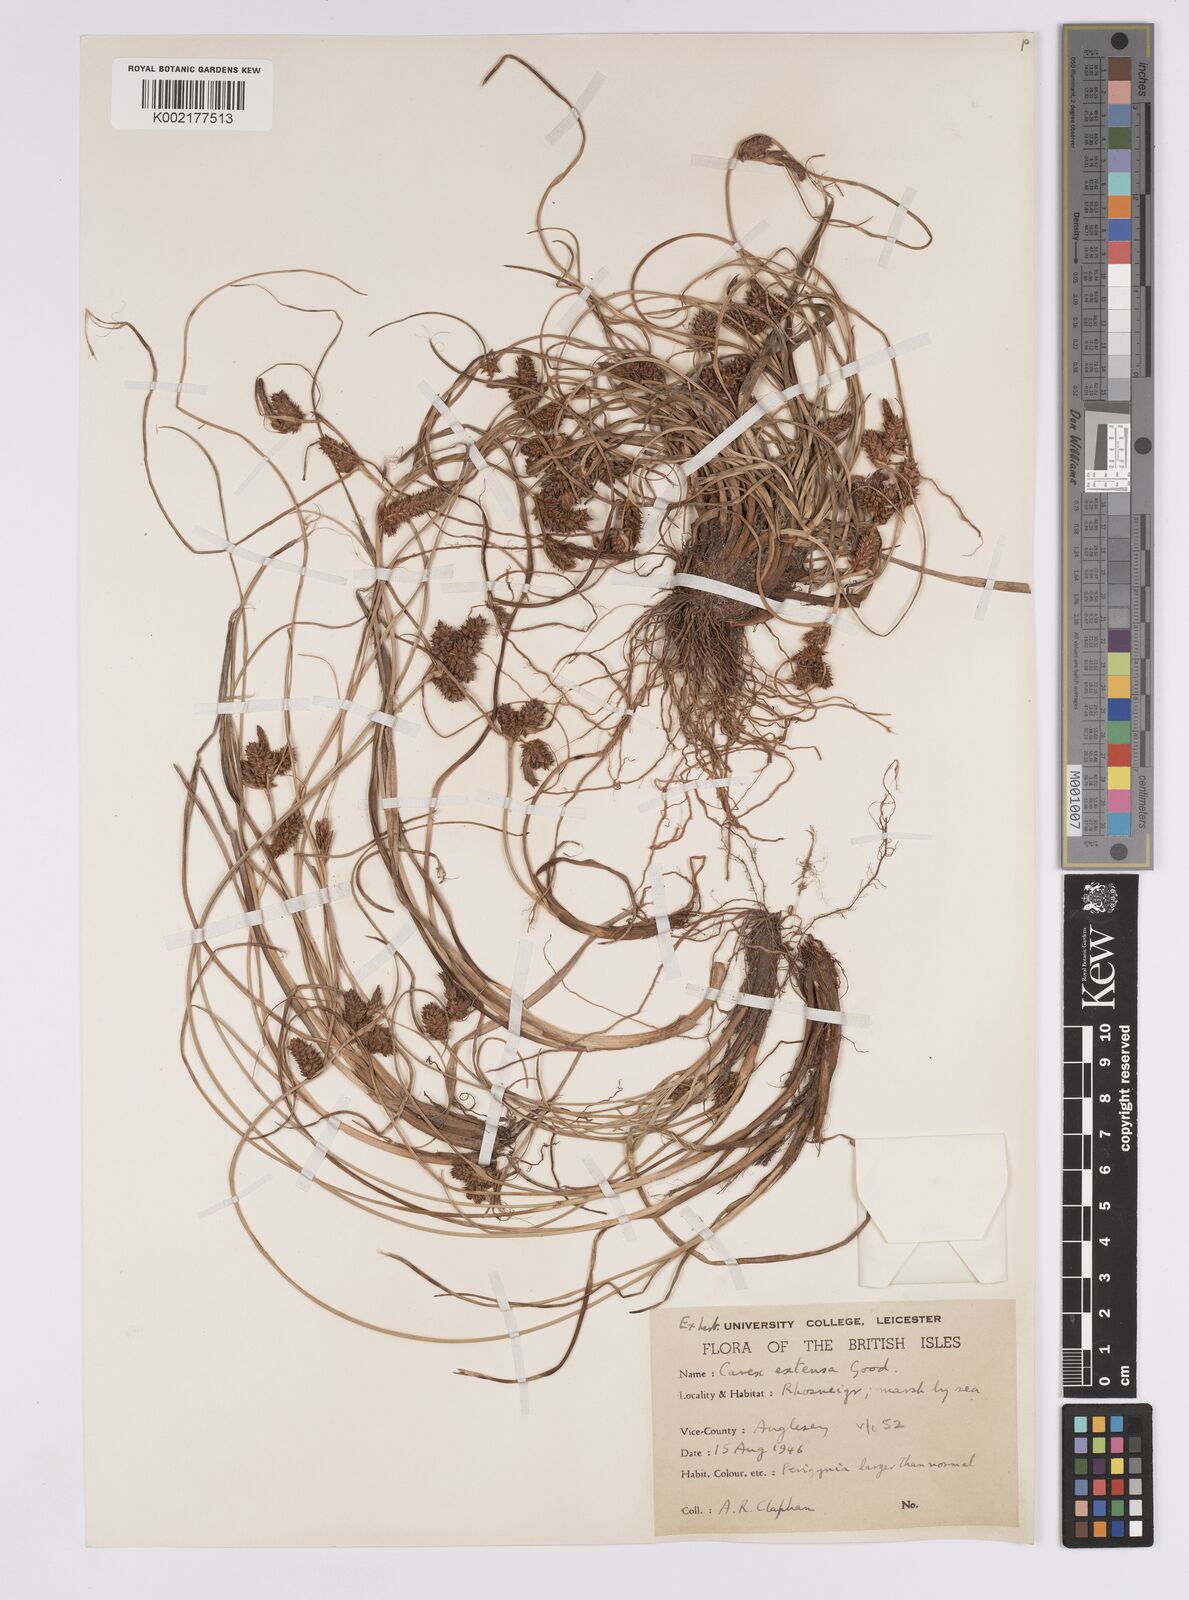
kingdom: Plantae
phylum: Tracheophyta
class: Liliopsida
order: Poales
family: Cyperaceae
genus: Carex
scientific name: Carex extensa
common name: Long-bracted sedge
